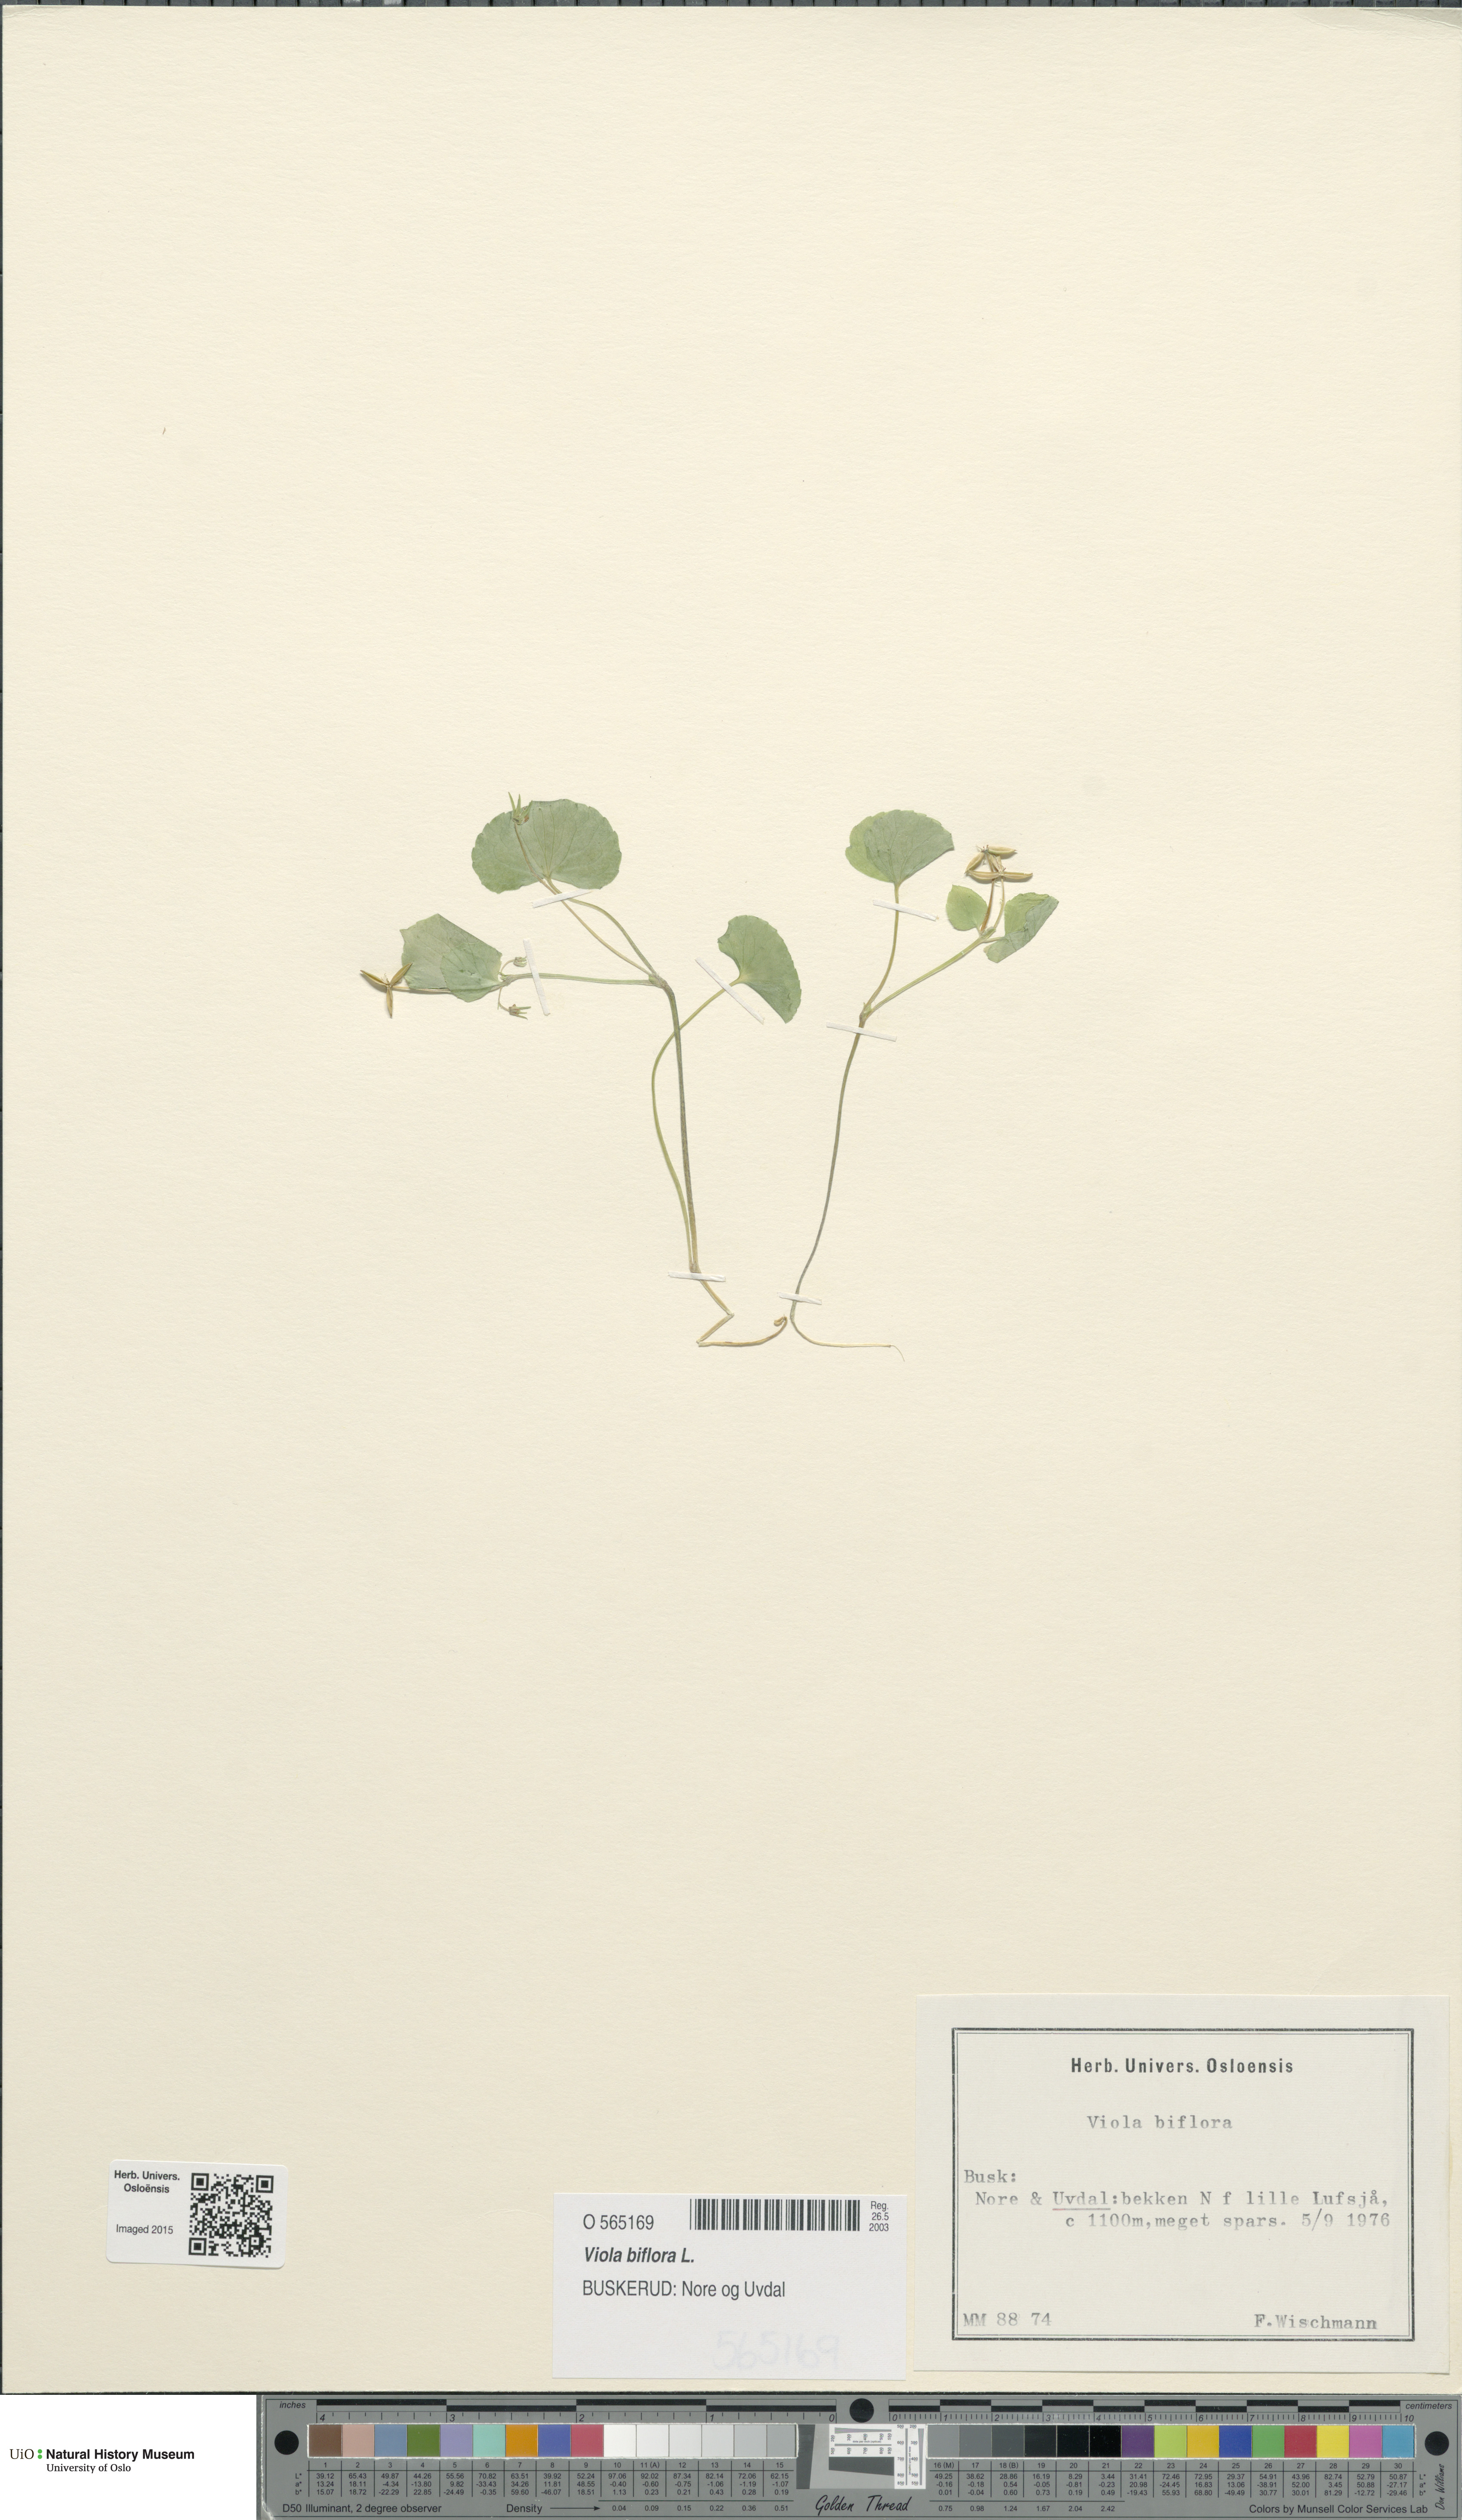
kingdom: Plantae
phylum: Tracheophyta
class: Magnoliopsida
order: Malpighiales
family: Violaceae
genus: Viola
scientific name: Viola biflora
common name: Alpine yellow violet
